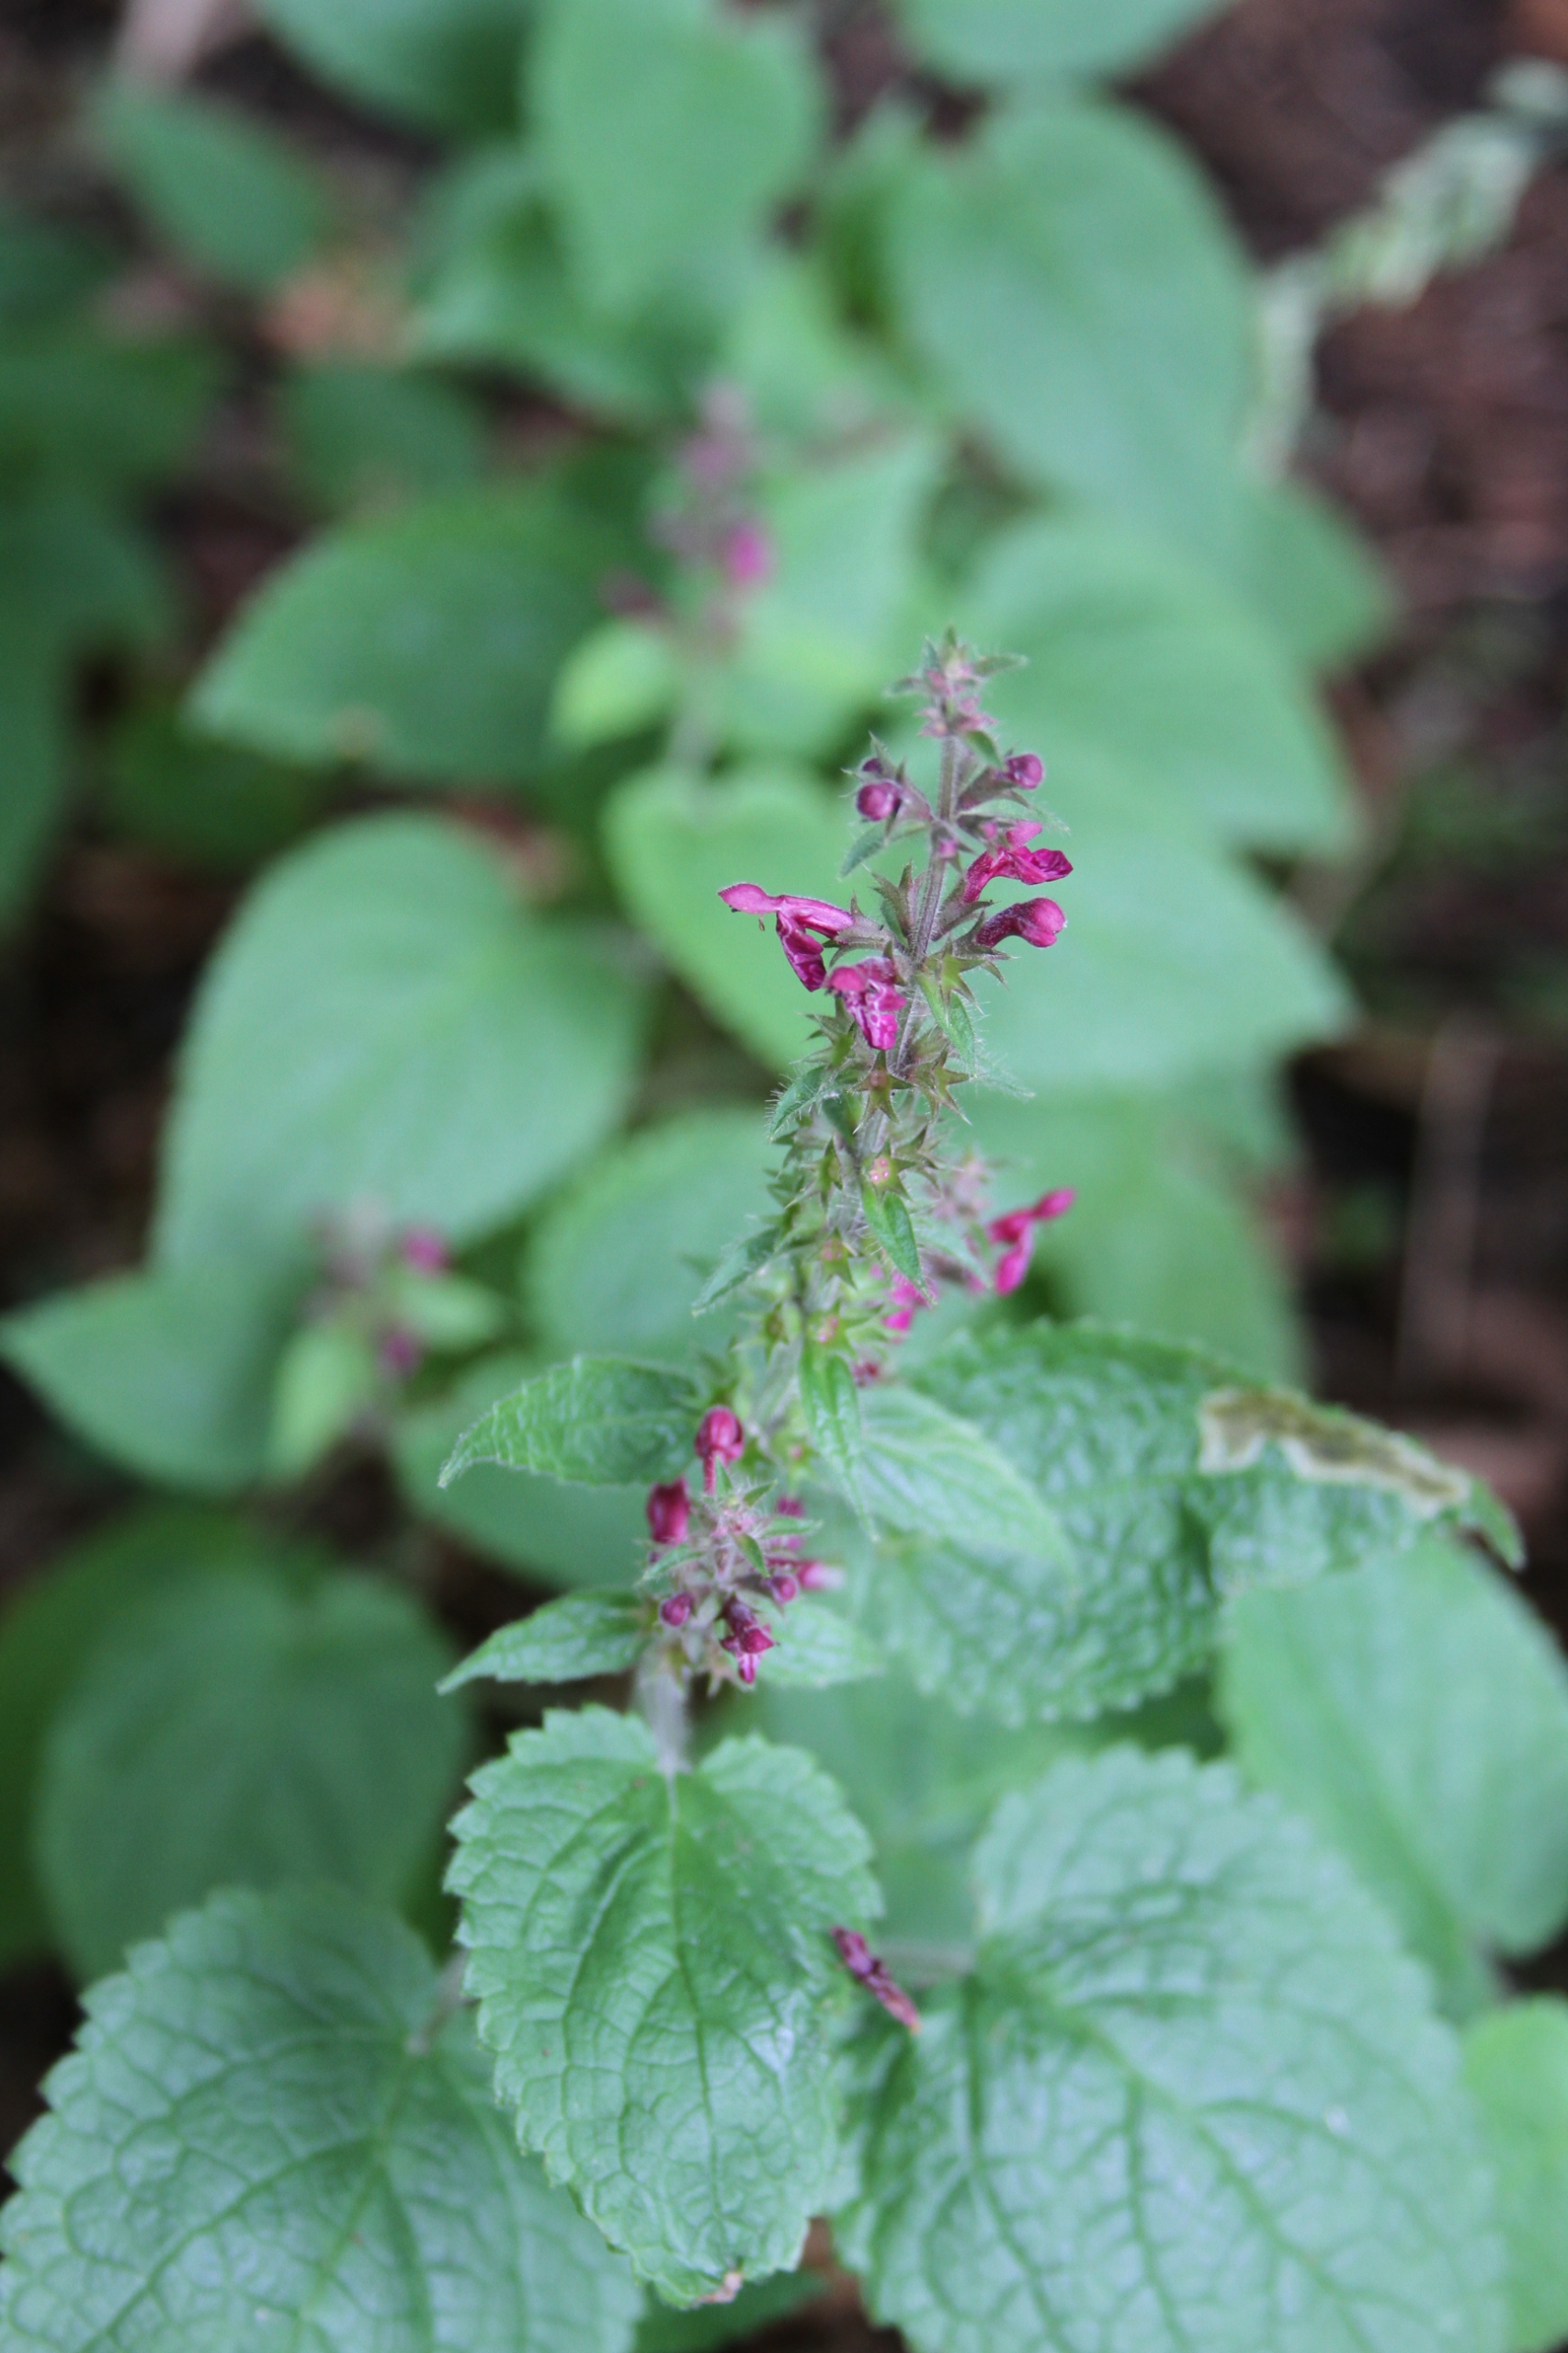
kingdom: Plantae
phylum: Tracheophyta
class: Magnoliopsida
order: Lamiales
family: Lamiaceae
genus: Stachys
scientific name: Stachys sylvatica
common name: Skov-galtetand
